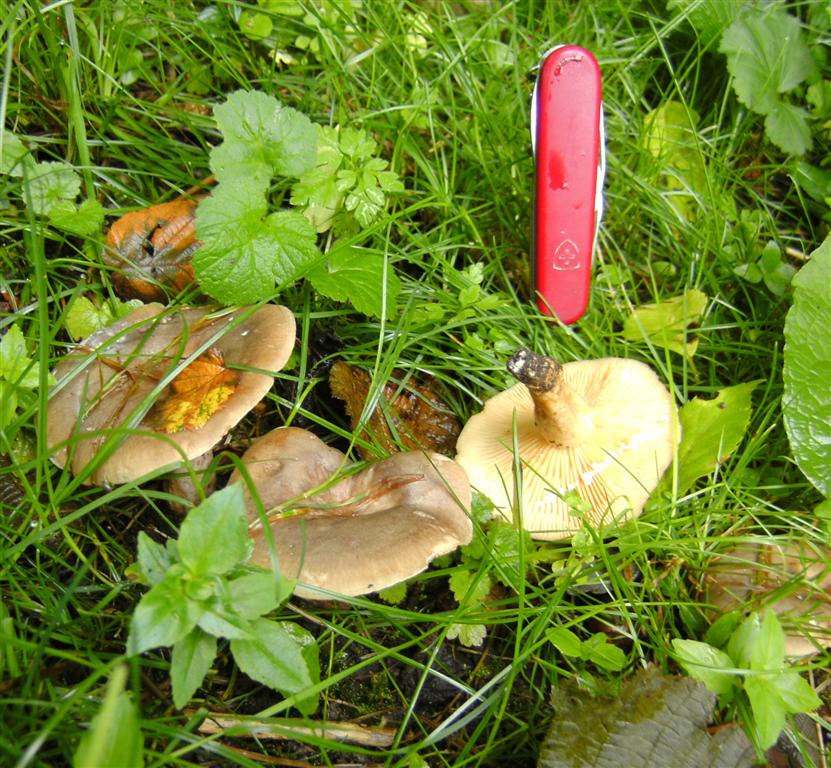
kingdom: Fungi
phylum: Basidiomycota
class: Agaricomycetes
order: Russulales
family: Russulaceae
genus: Lactarius
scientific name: Lactarius pyrogalus
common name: hassel-mælkehat
